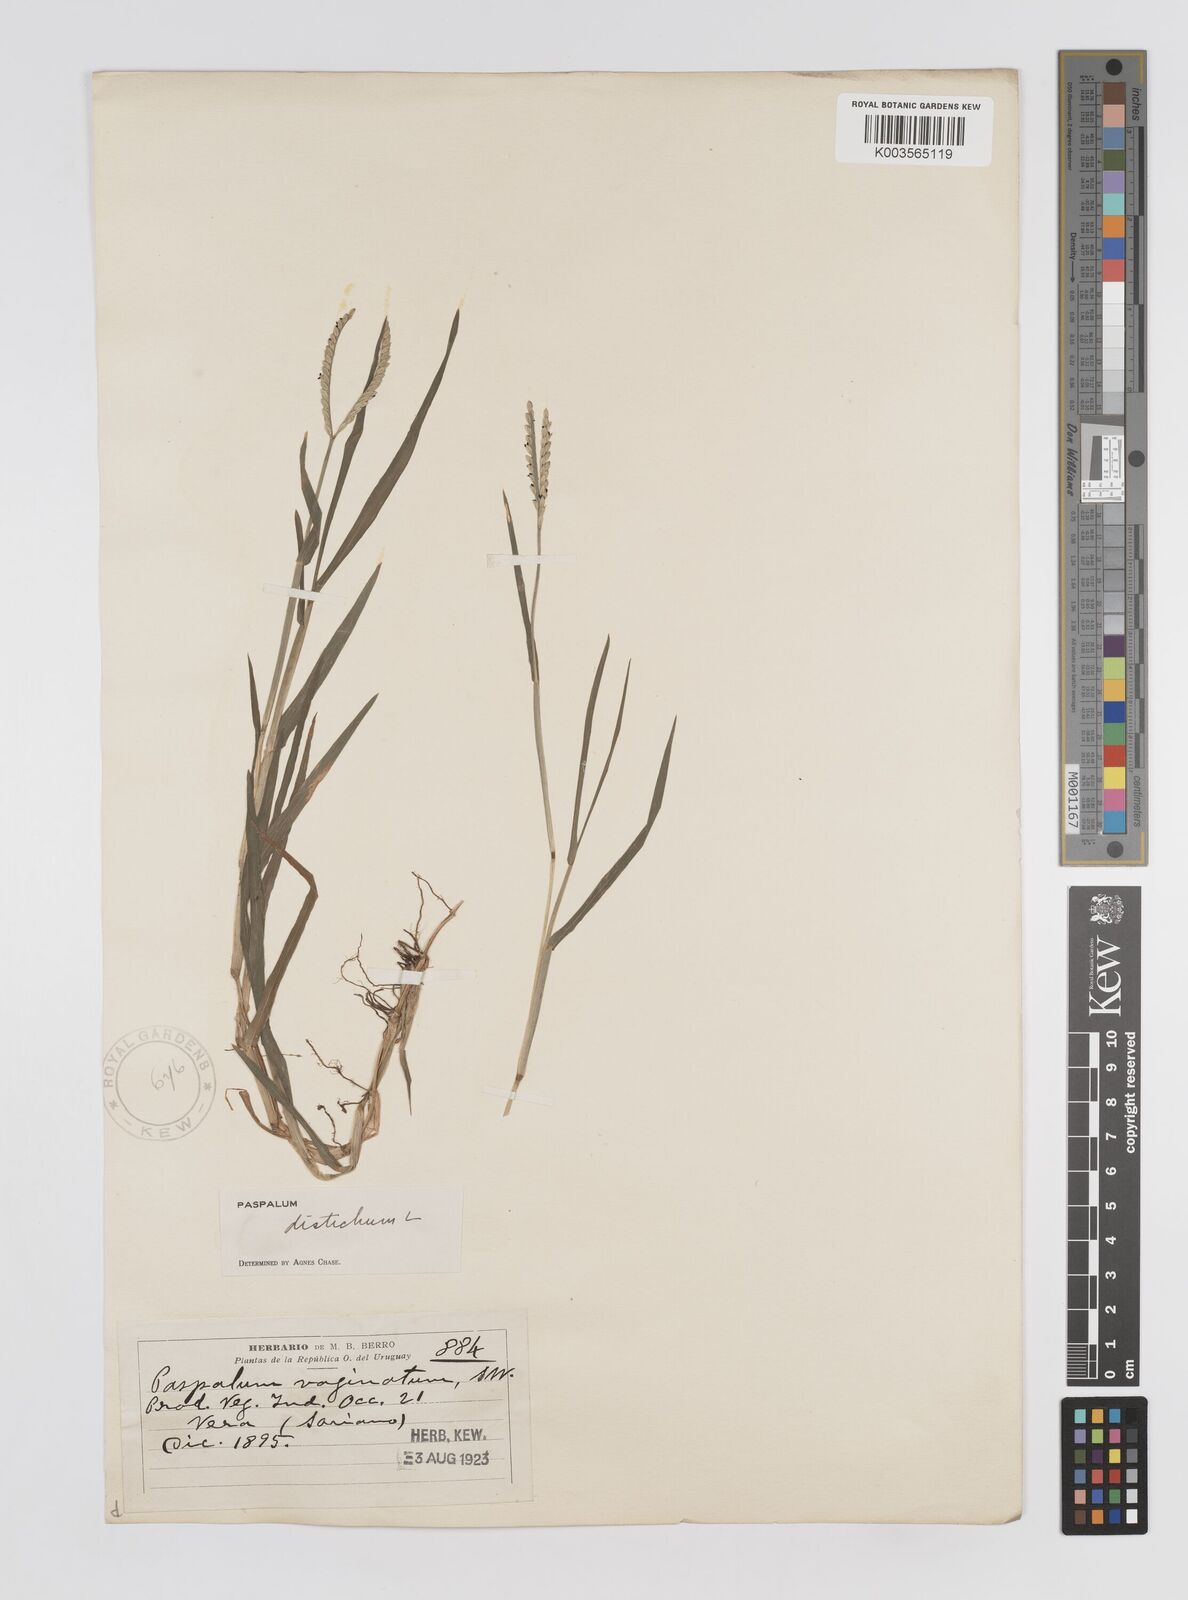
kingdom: Plantae
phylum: Tracheophyta
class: Liliopsida
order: Poales
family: Poaceae
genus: Paspalum
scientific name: Paspalum distichum
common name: Knotgrass
